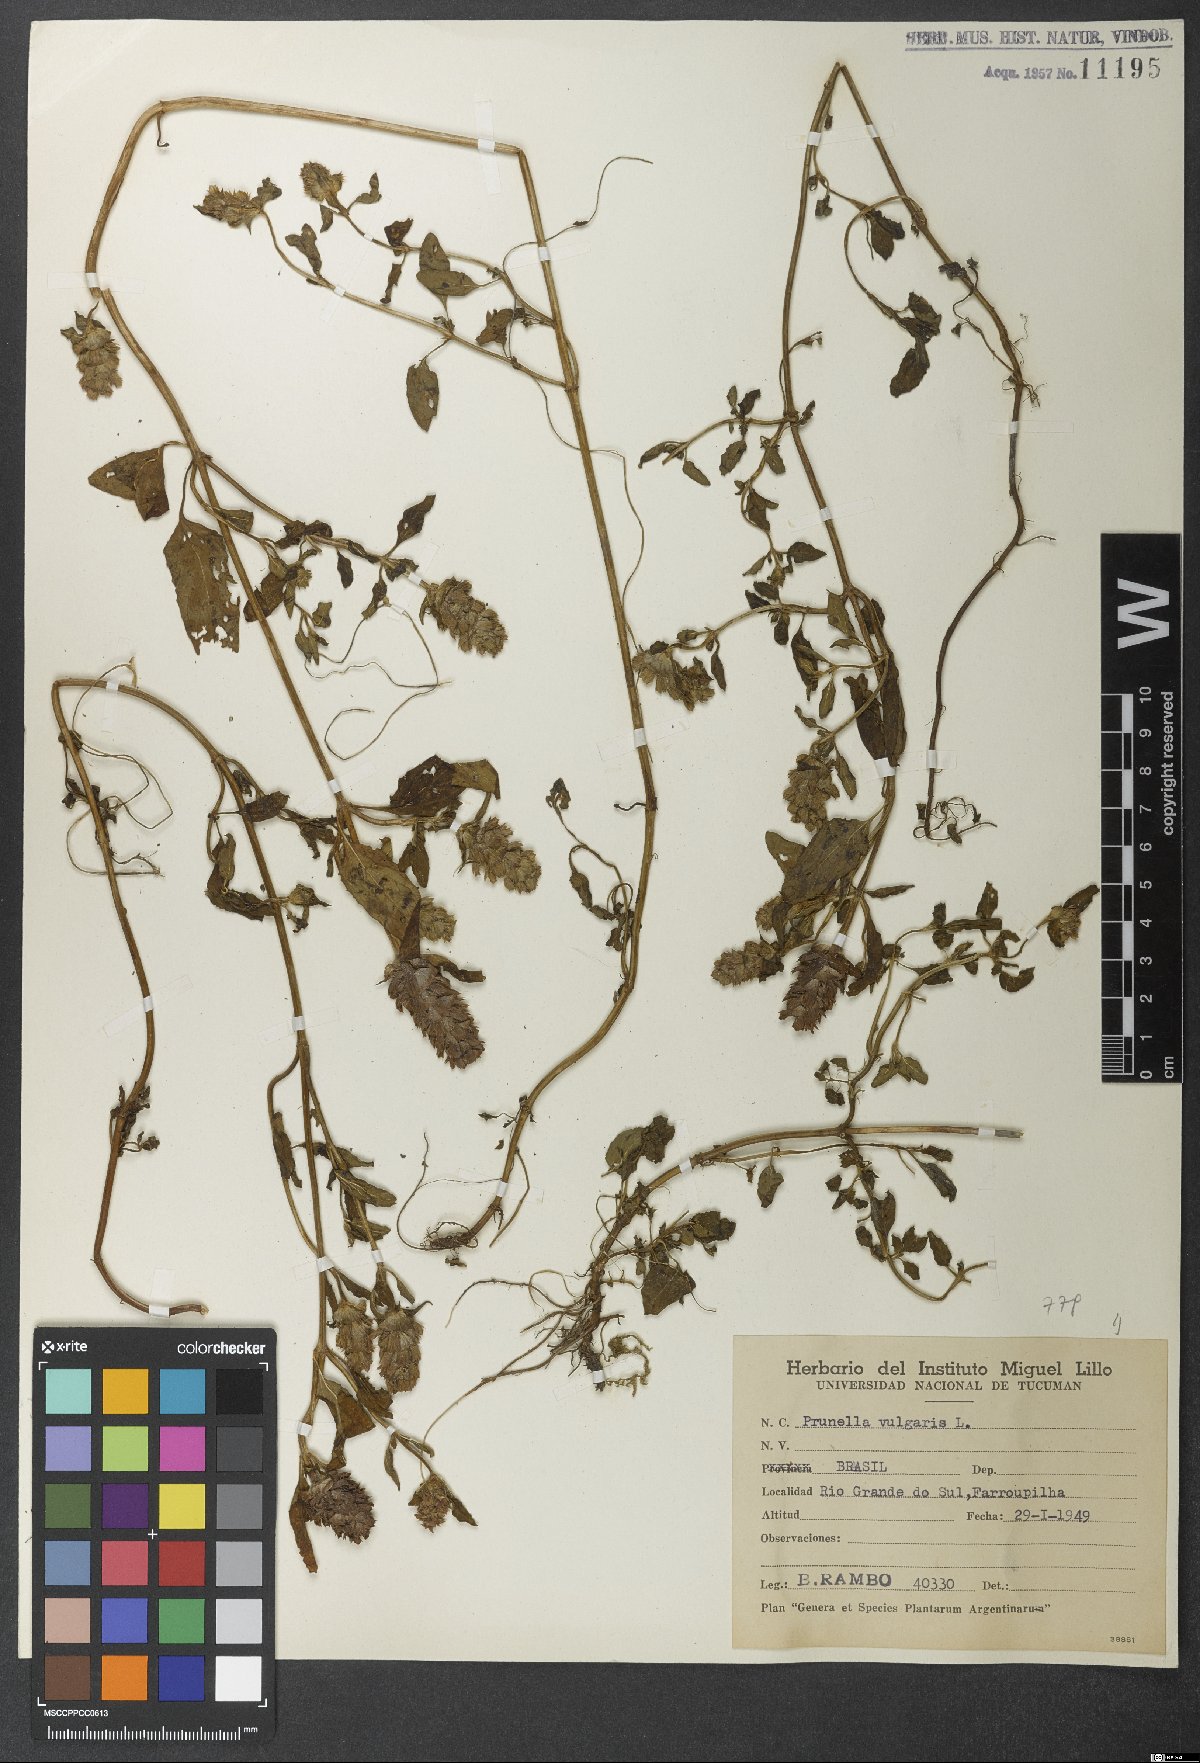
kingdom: Plantae
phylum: Tracheophyta
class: Magnoliopsida
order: Lamiales
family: Lamiaceae
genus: Prunella
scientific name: Prunella vulgaris
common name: Heal-all
